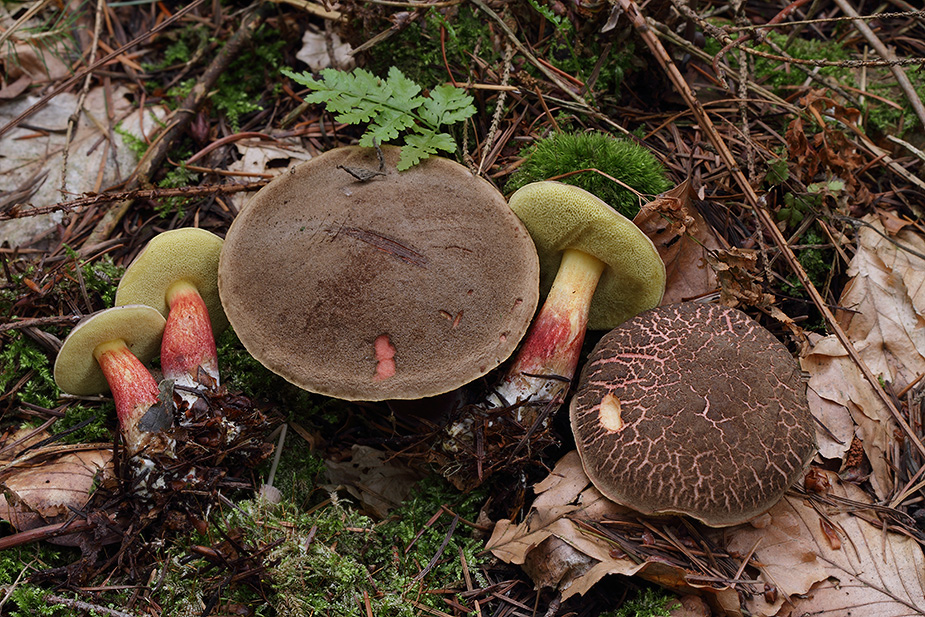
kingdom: Fungi
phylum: Basidiomycota
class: Agaricomycetes
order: Boletales
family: Boletaceae
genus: Xerocomellus
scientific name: Xerocomellus chrysenteron
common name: rødsprukken rørhat
